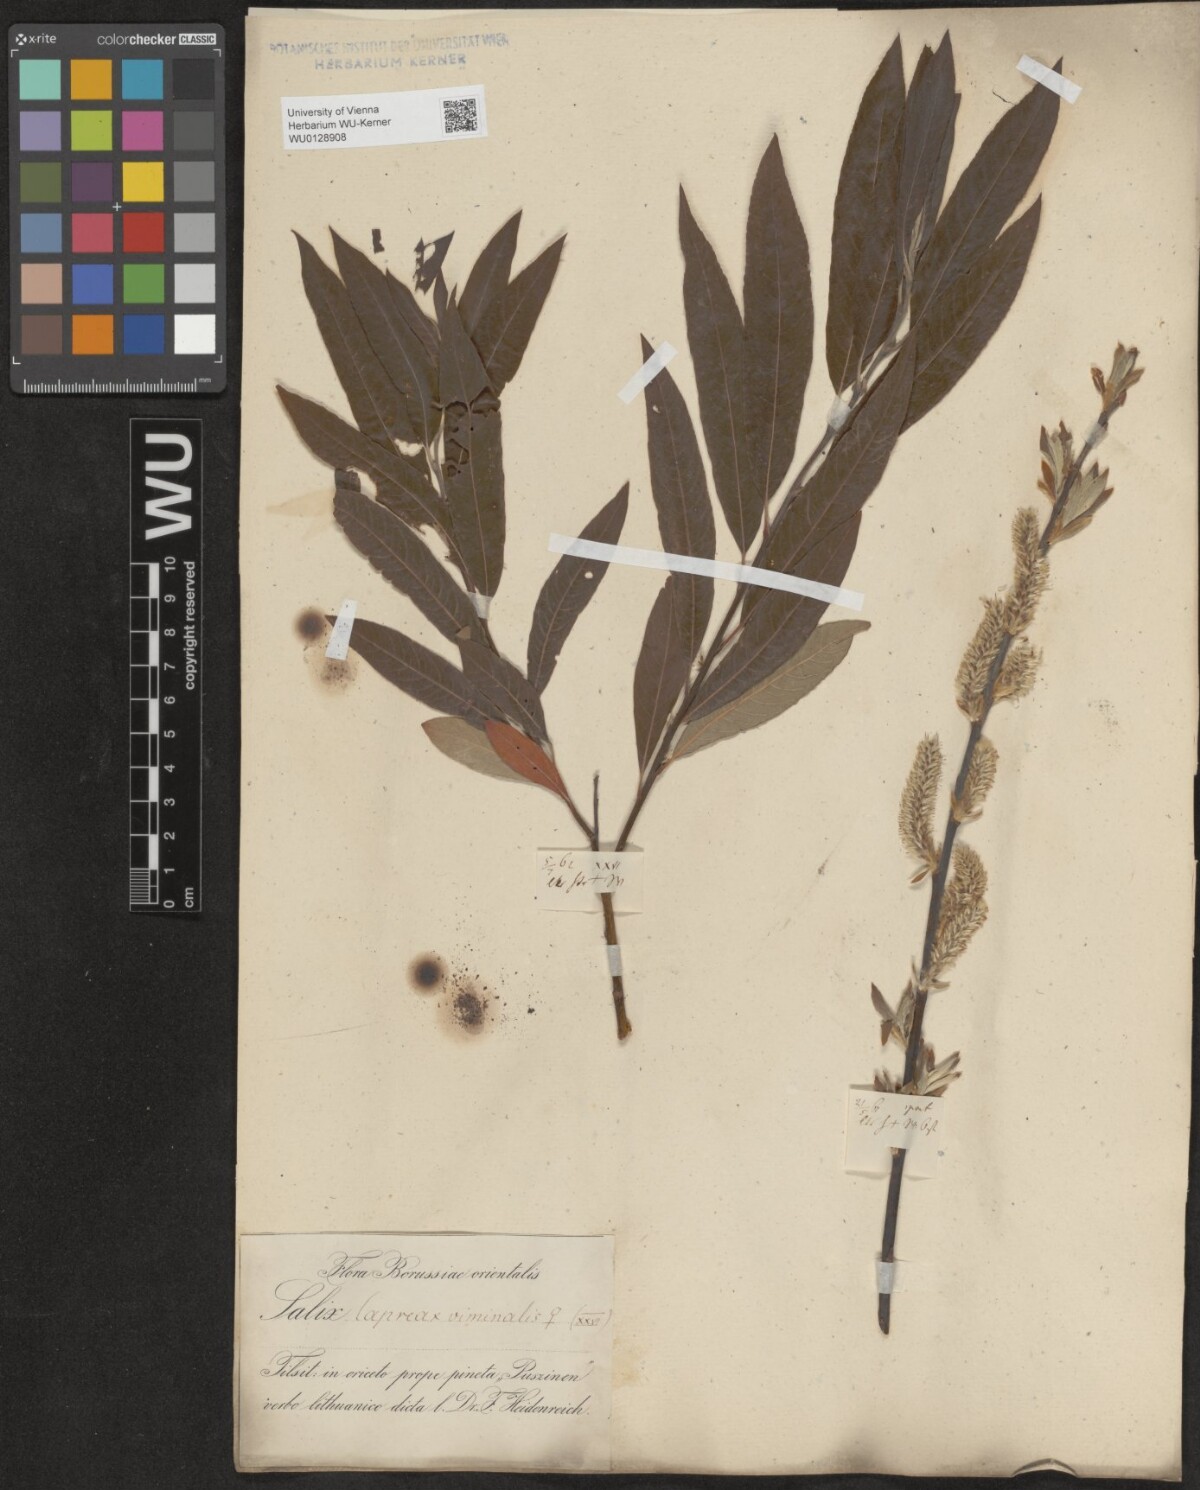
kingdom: Plantae
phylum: Tracheophyta
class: Magnoliopsida
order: Malpighiales
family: Salicaceae
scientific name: Salicaceae
